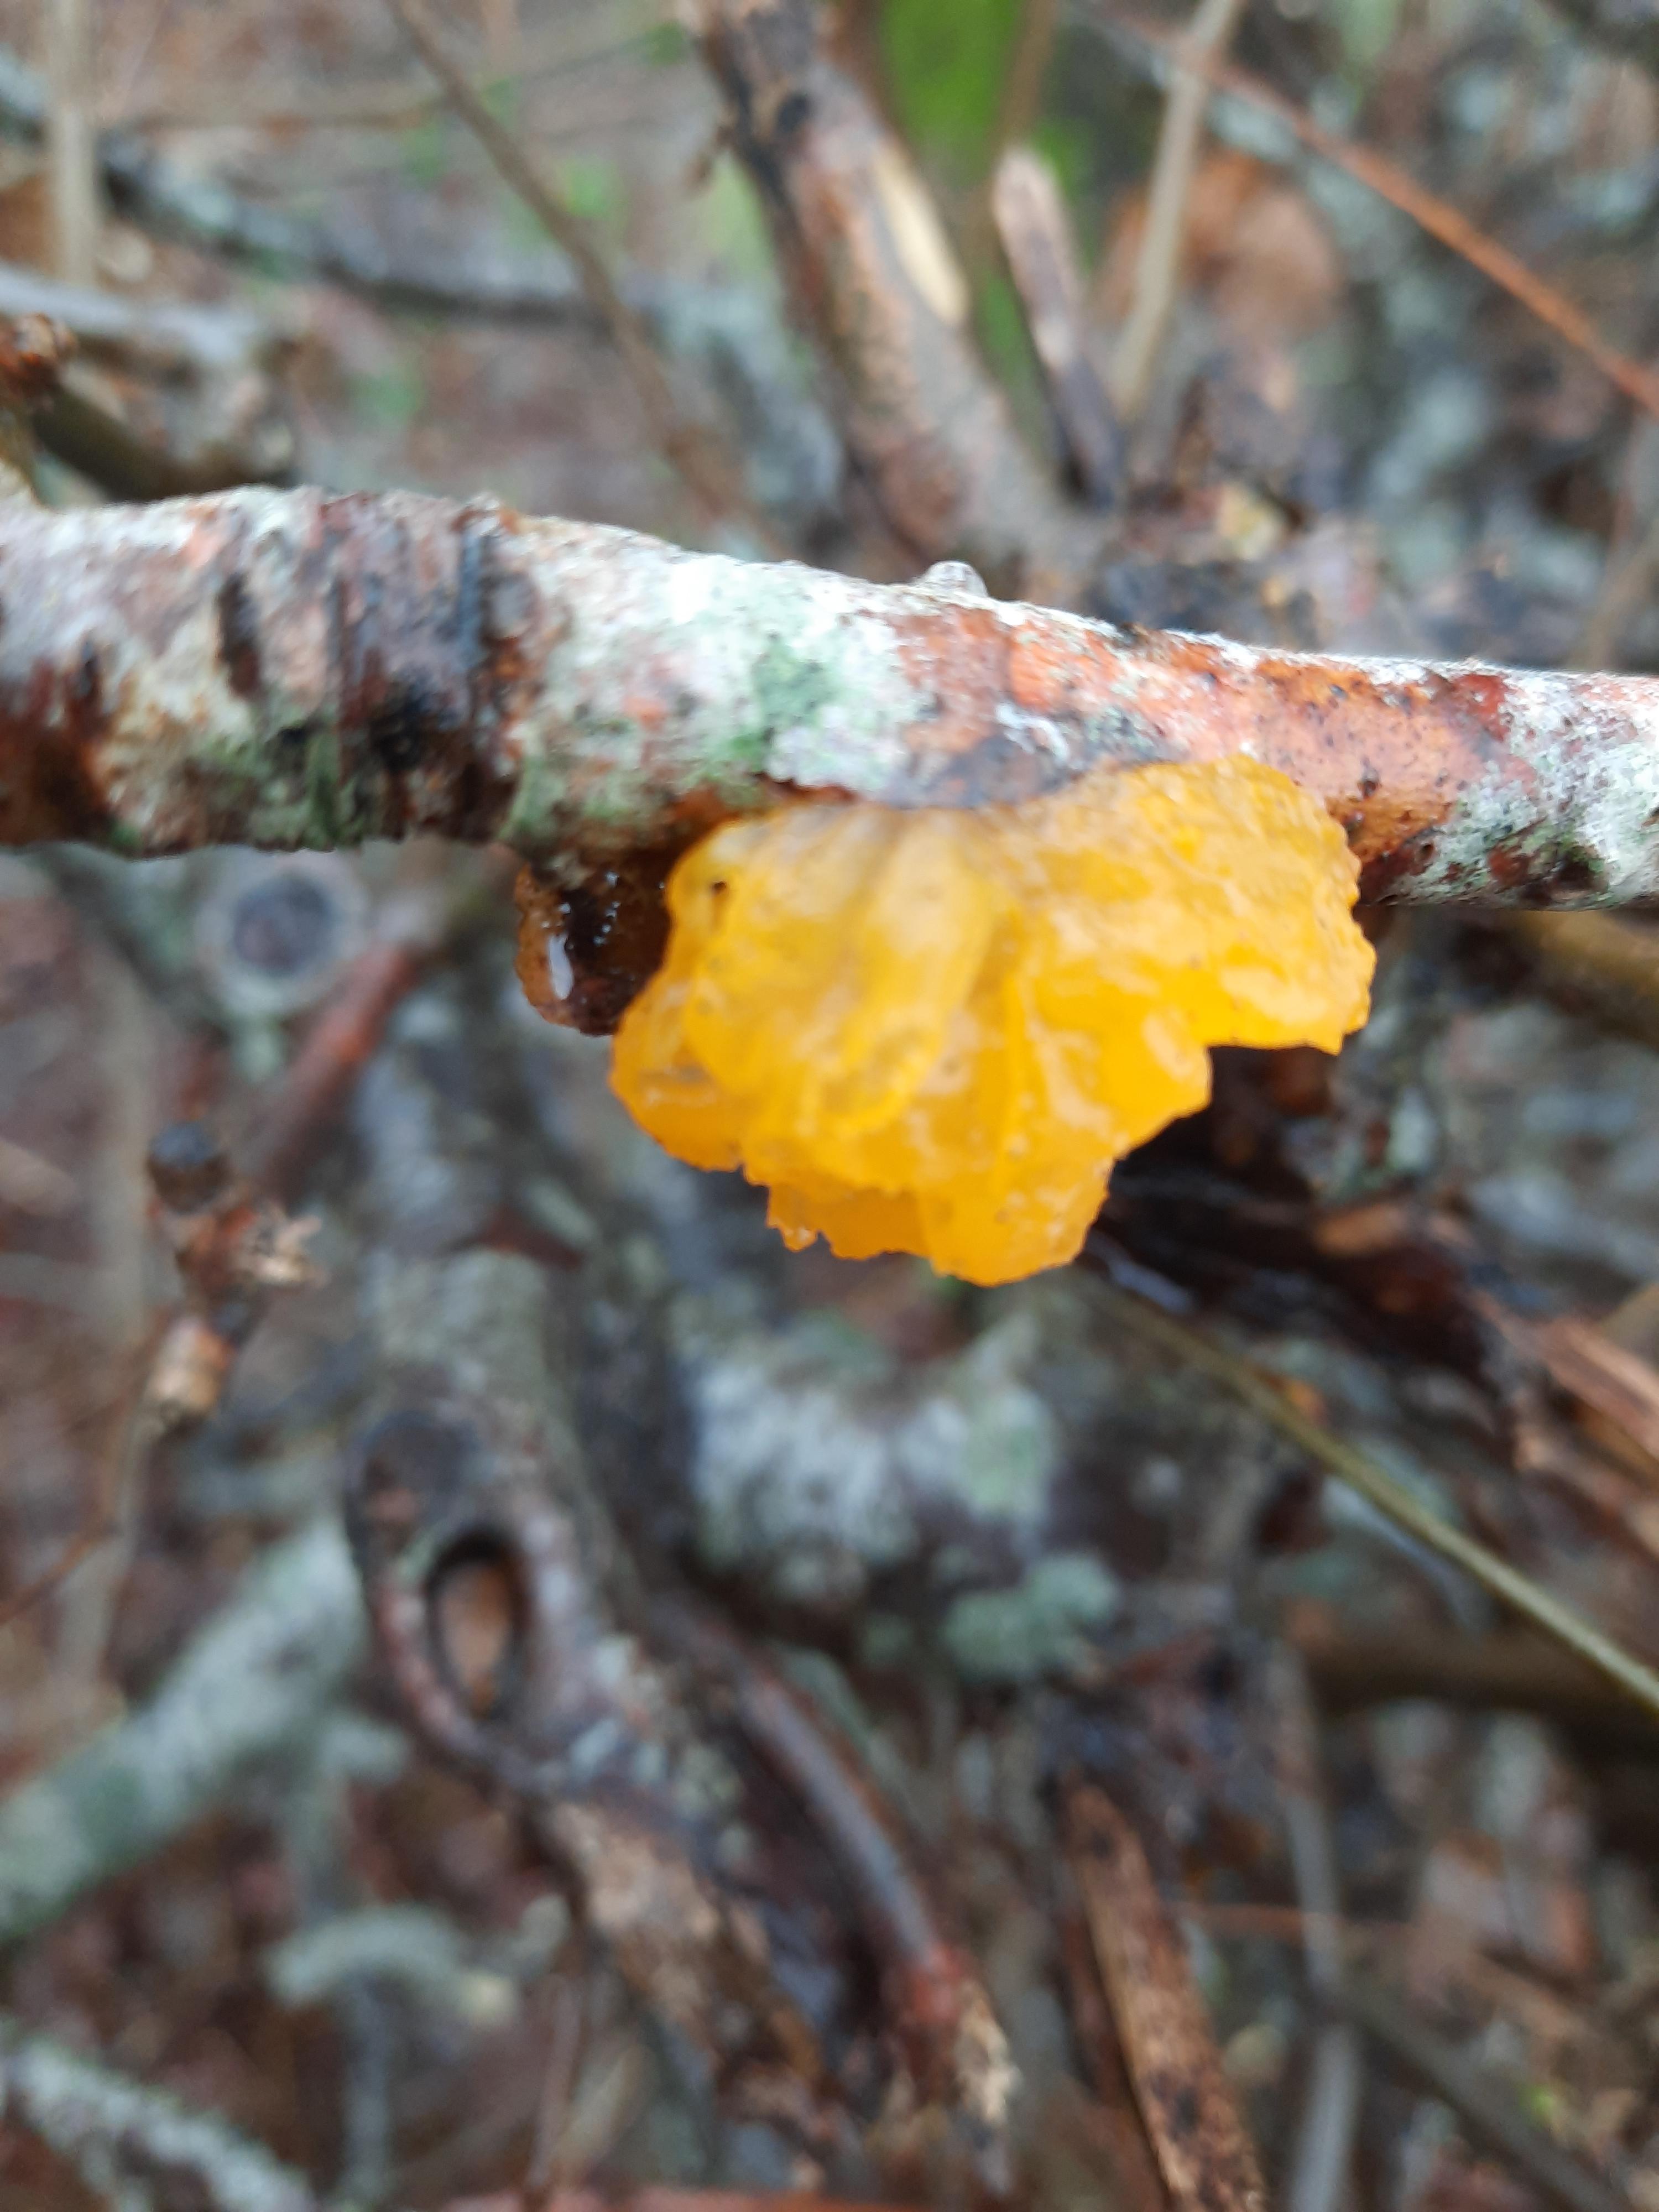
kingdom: Fungi
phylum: Basidiomycota
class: Tremellomycetes
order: Tremellales
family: Tremellaceae
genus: Tremella
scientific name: Tremella mesenterica
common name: gul bævresvamp
